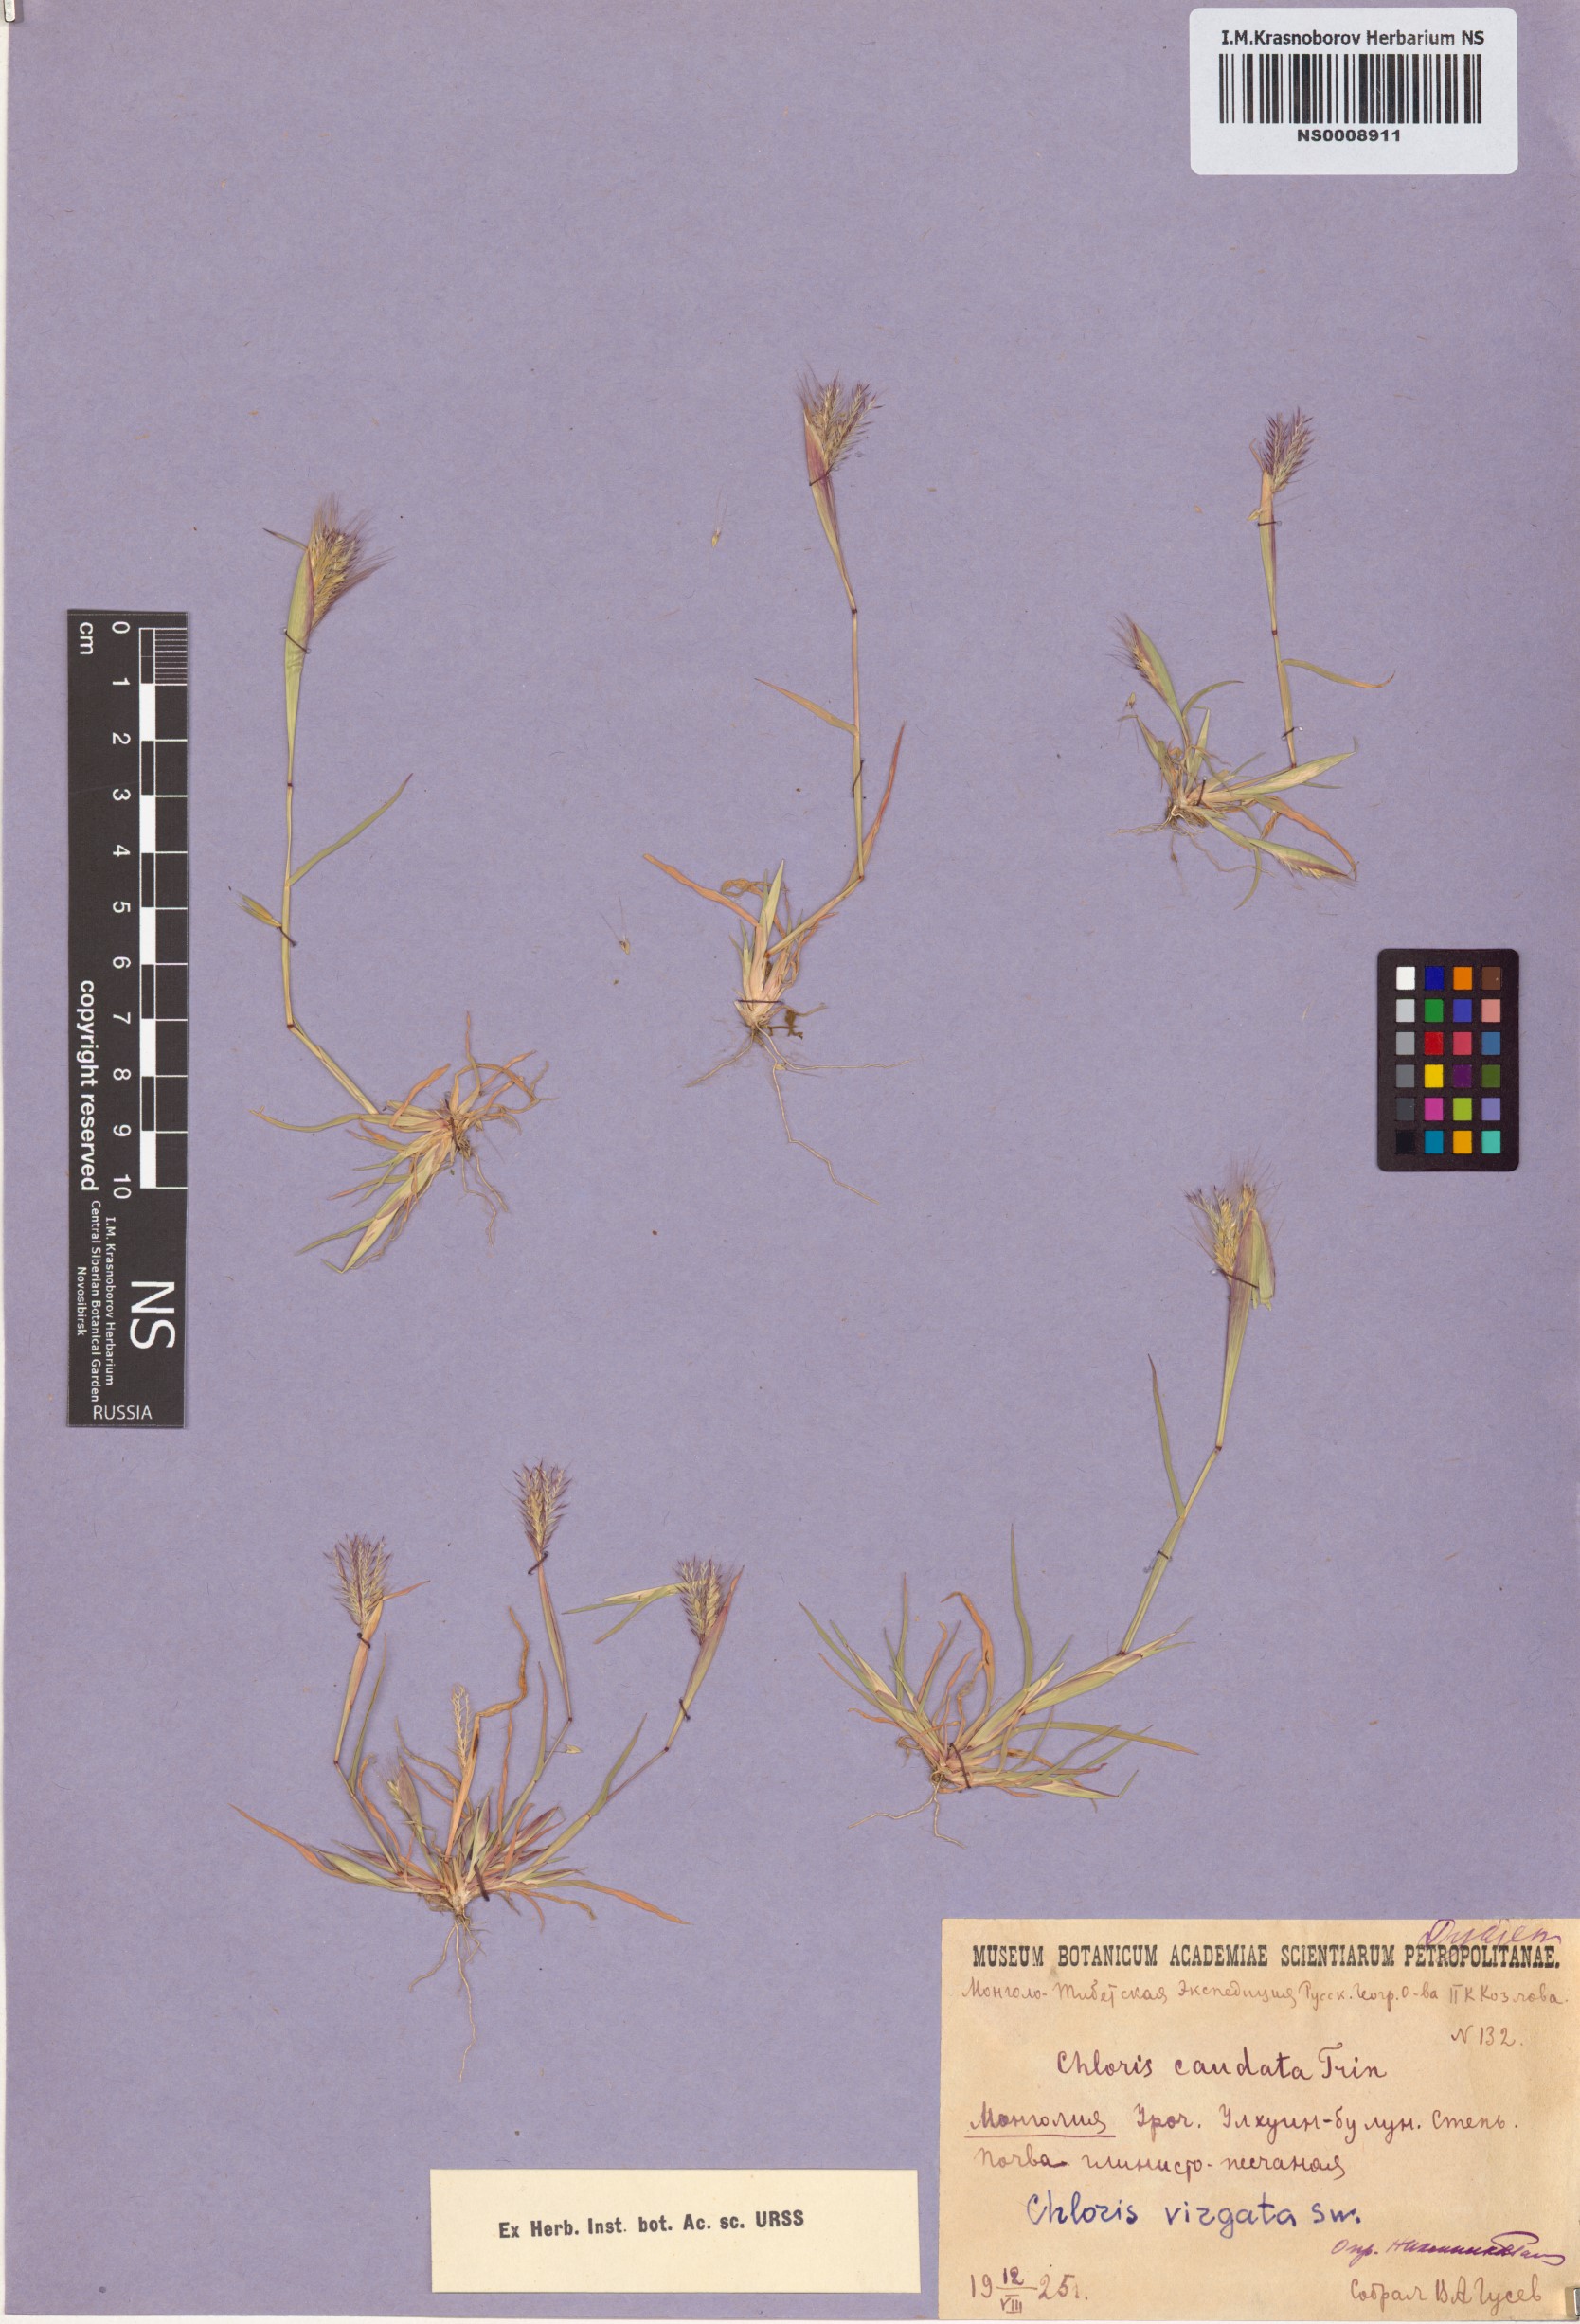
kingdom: Plantae
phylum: Tracheophyta
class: Liliopsida
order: Poales
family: Poaceae
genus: Chloris
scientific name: Chloris virgata
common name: Feathery rhodes-grass
